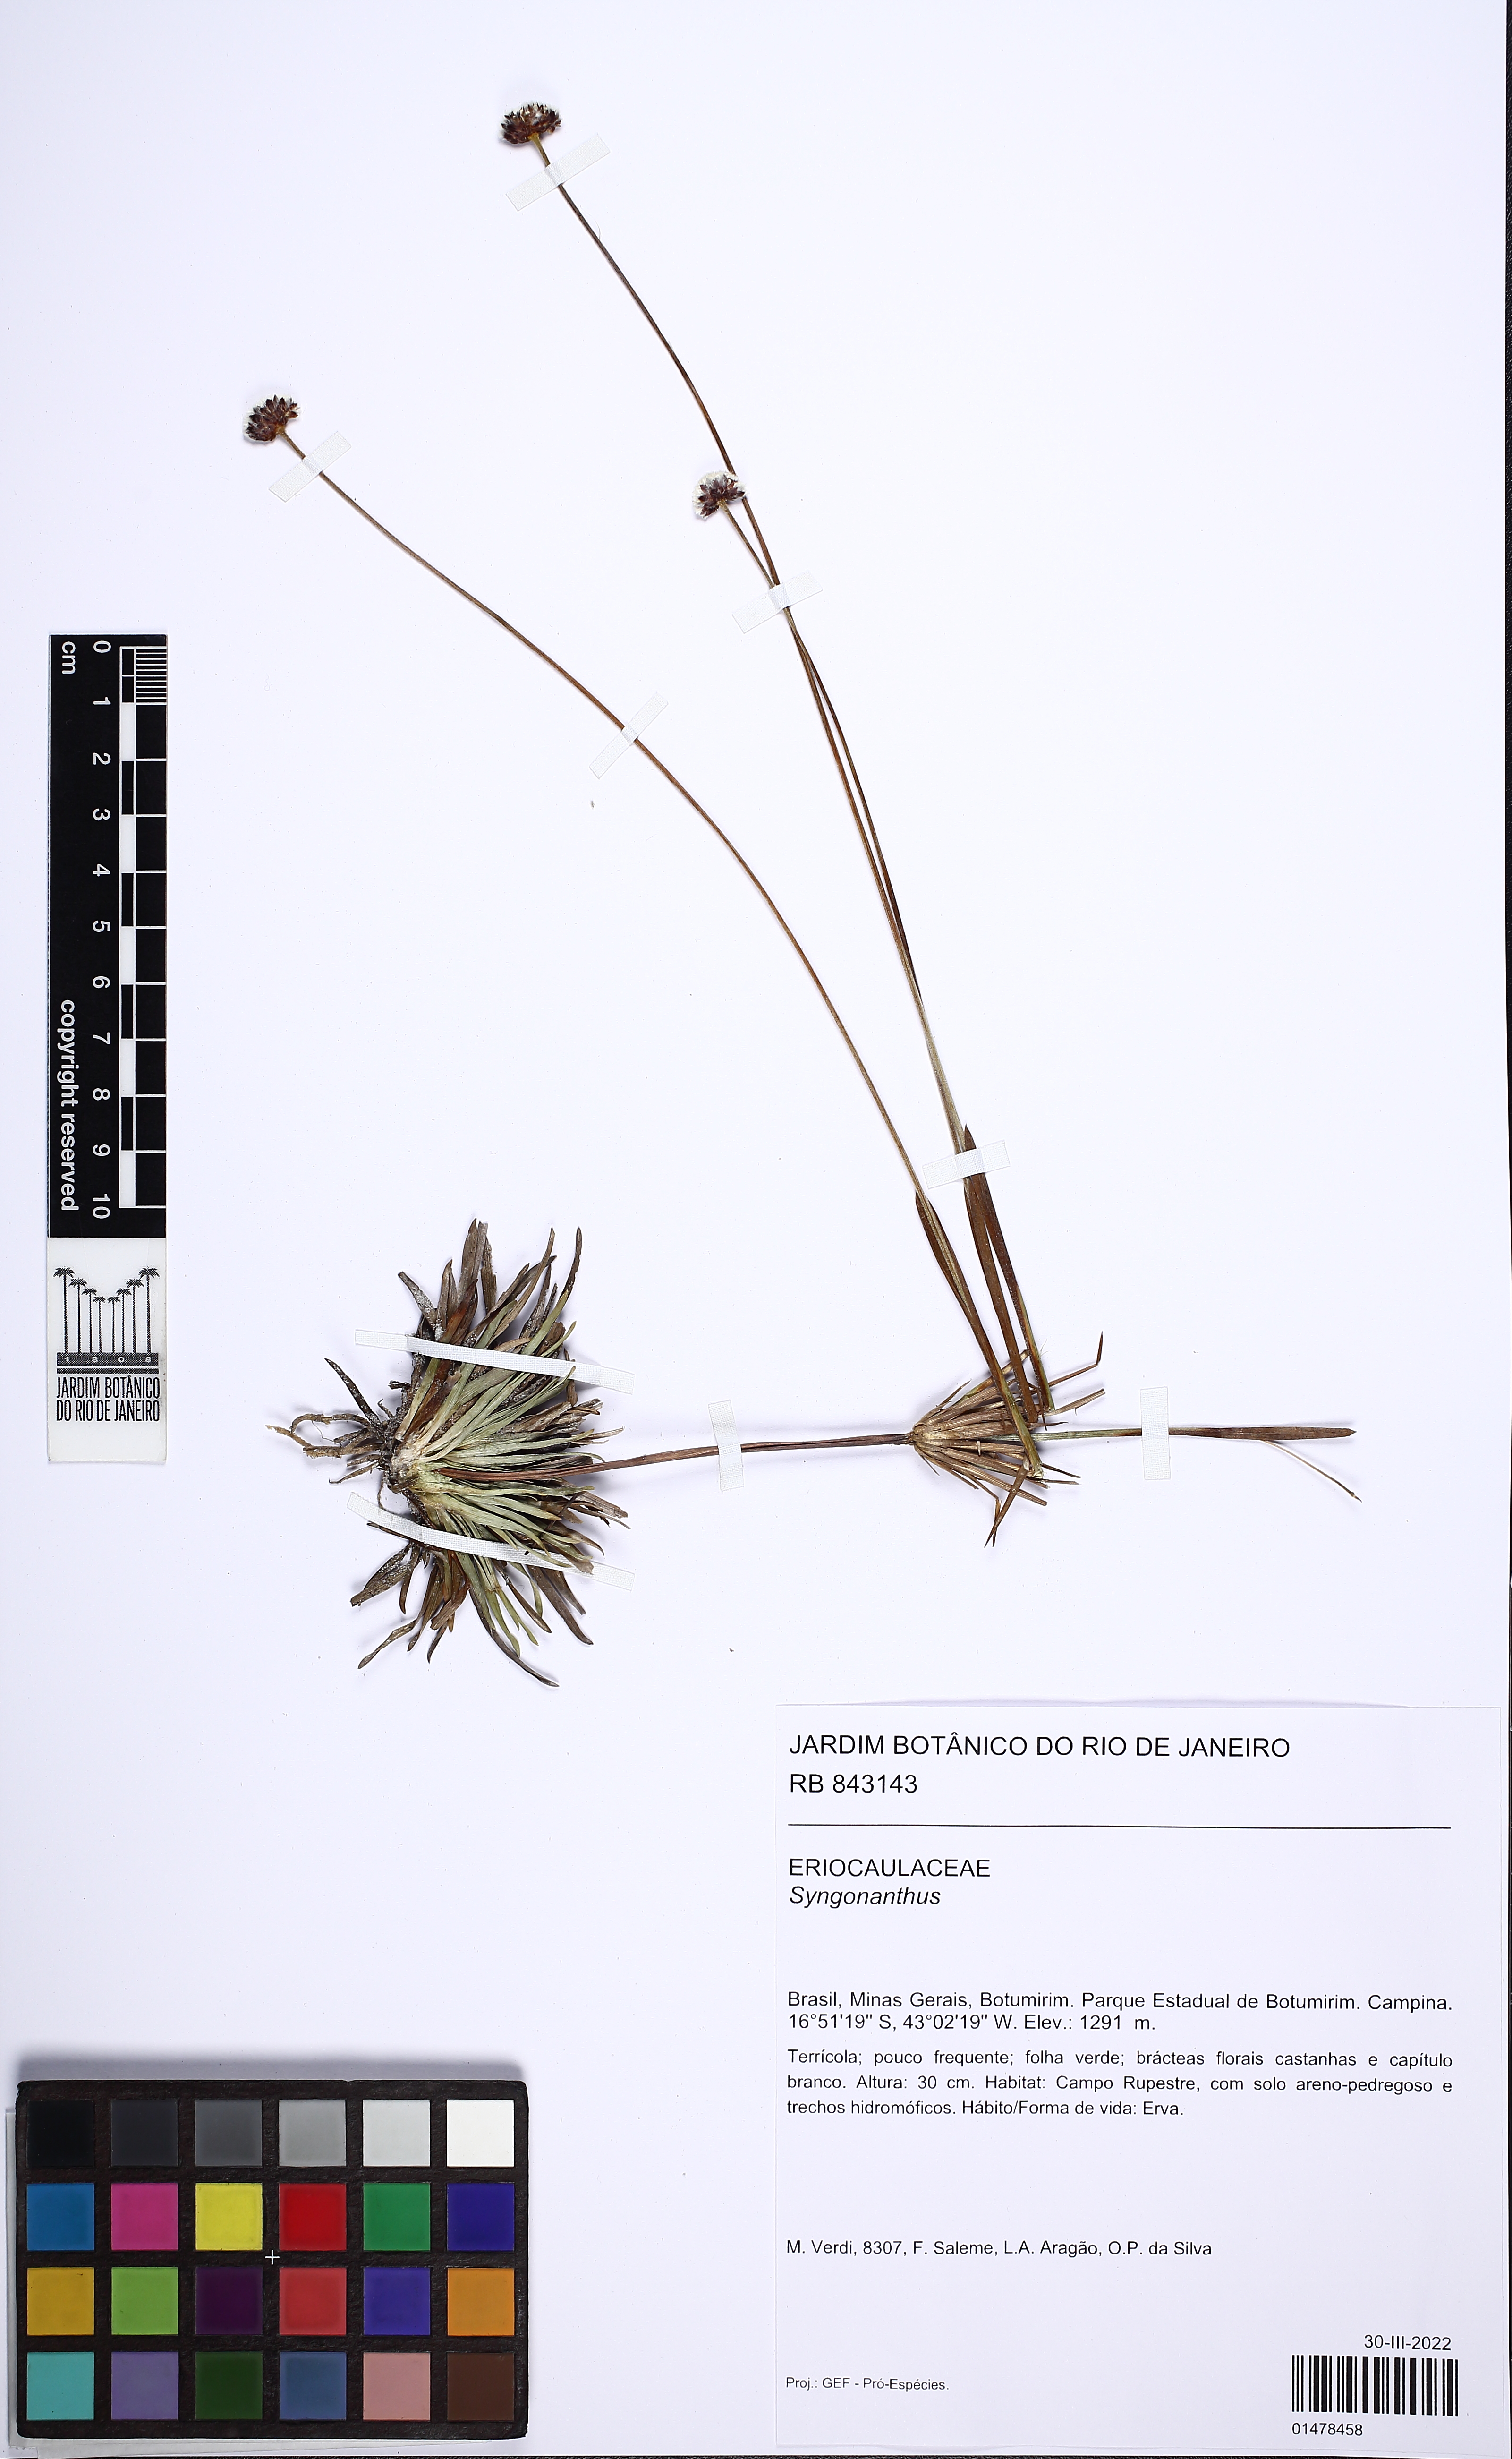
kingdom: Plantae
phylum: Tracheophyta
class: Liliopsida
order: Poales
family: Eriocaulaceae
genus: Syngonanthus
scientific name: Syngonanthus
